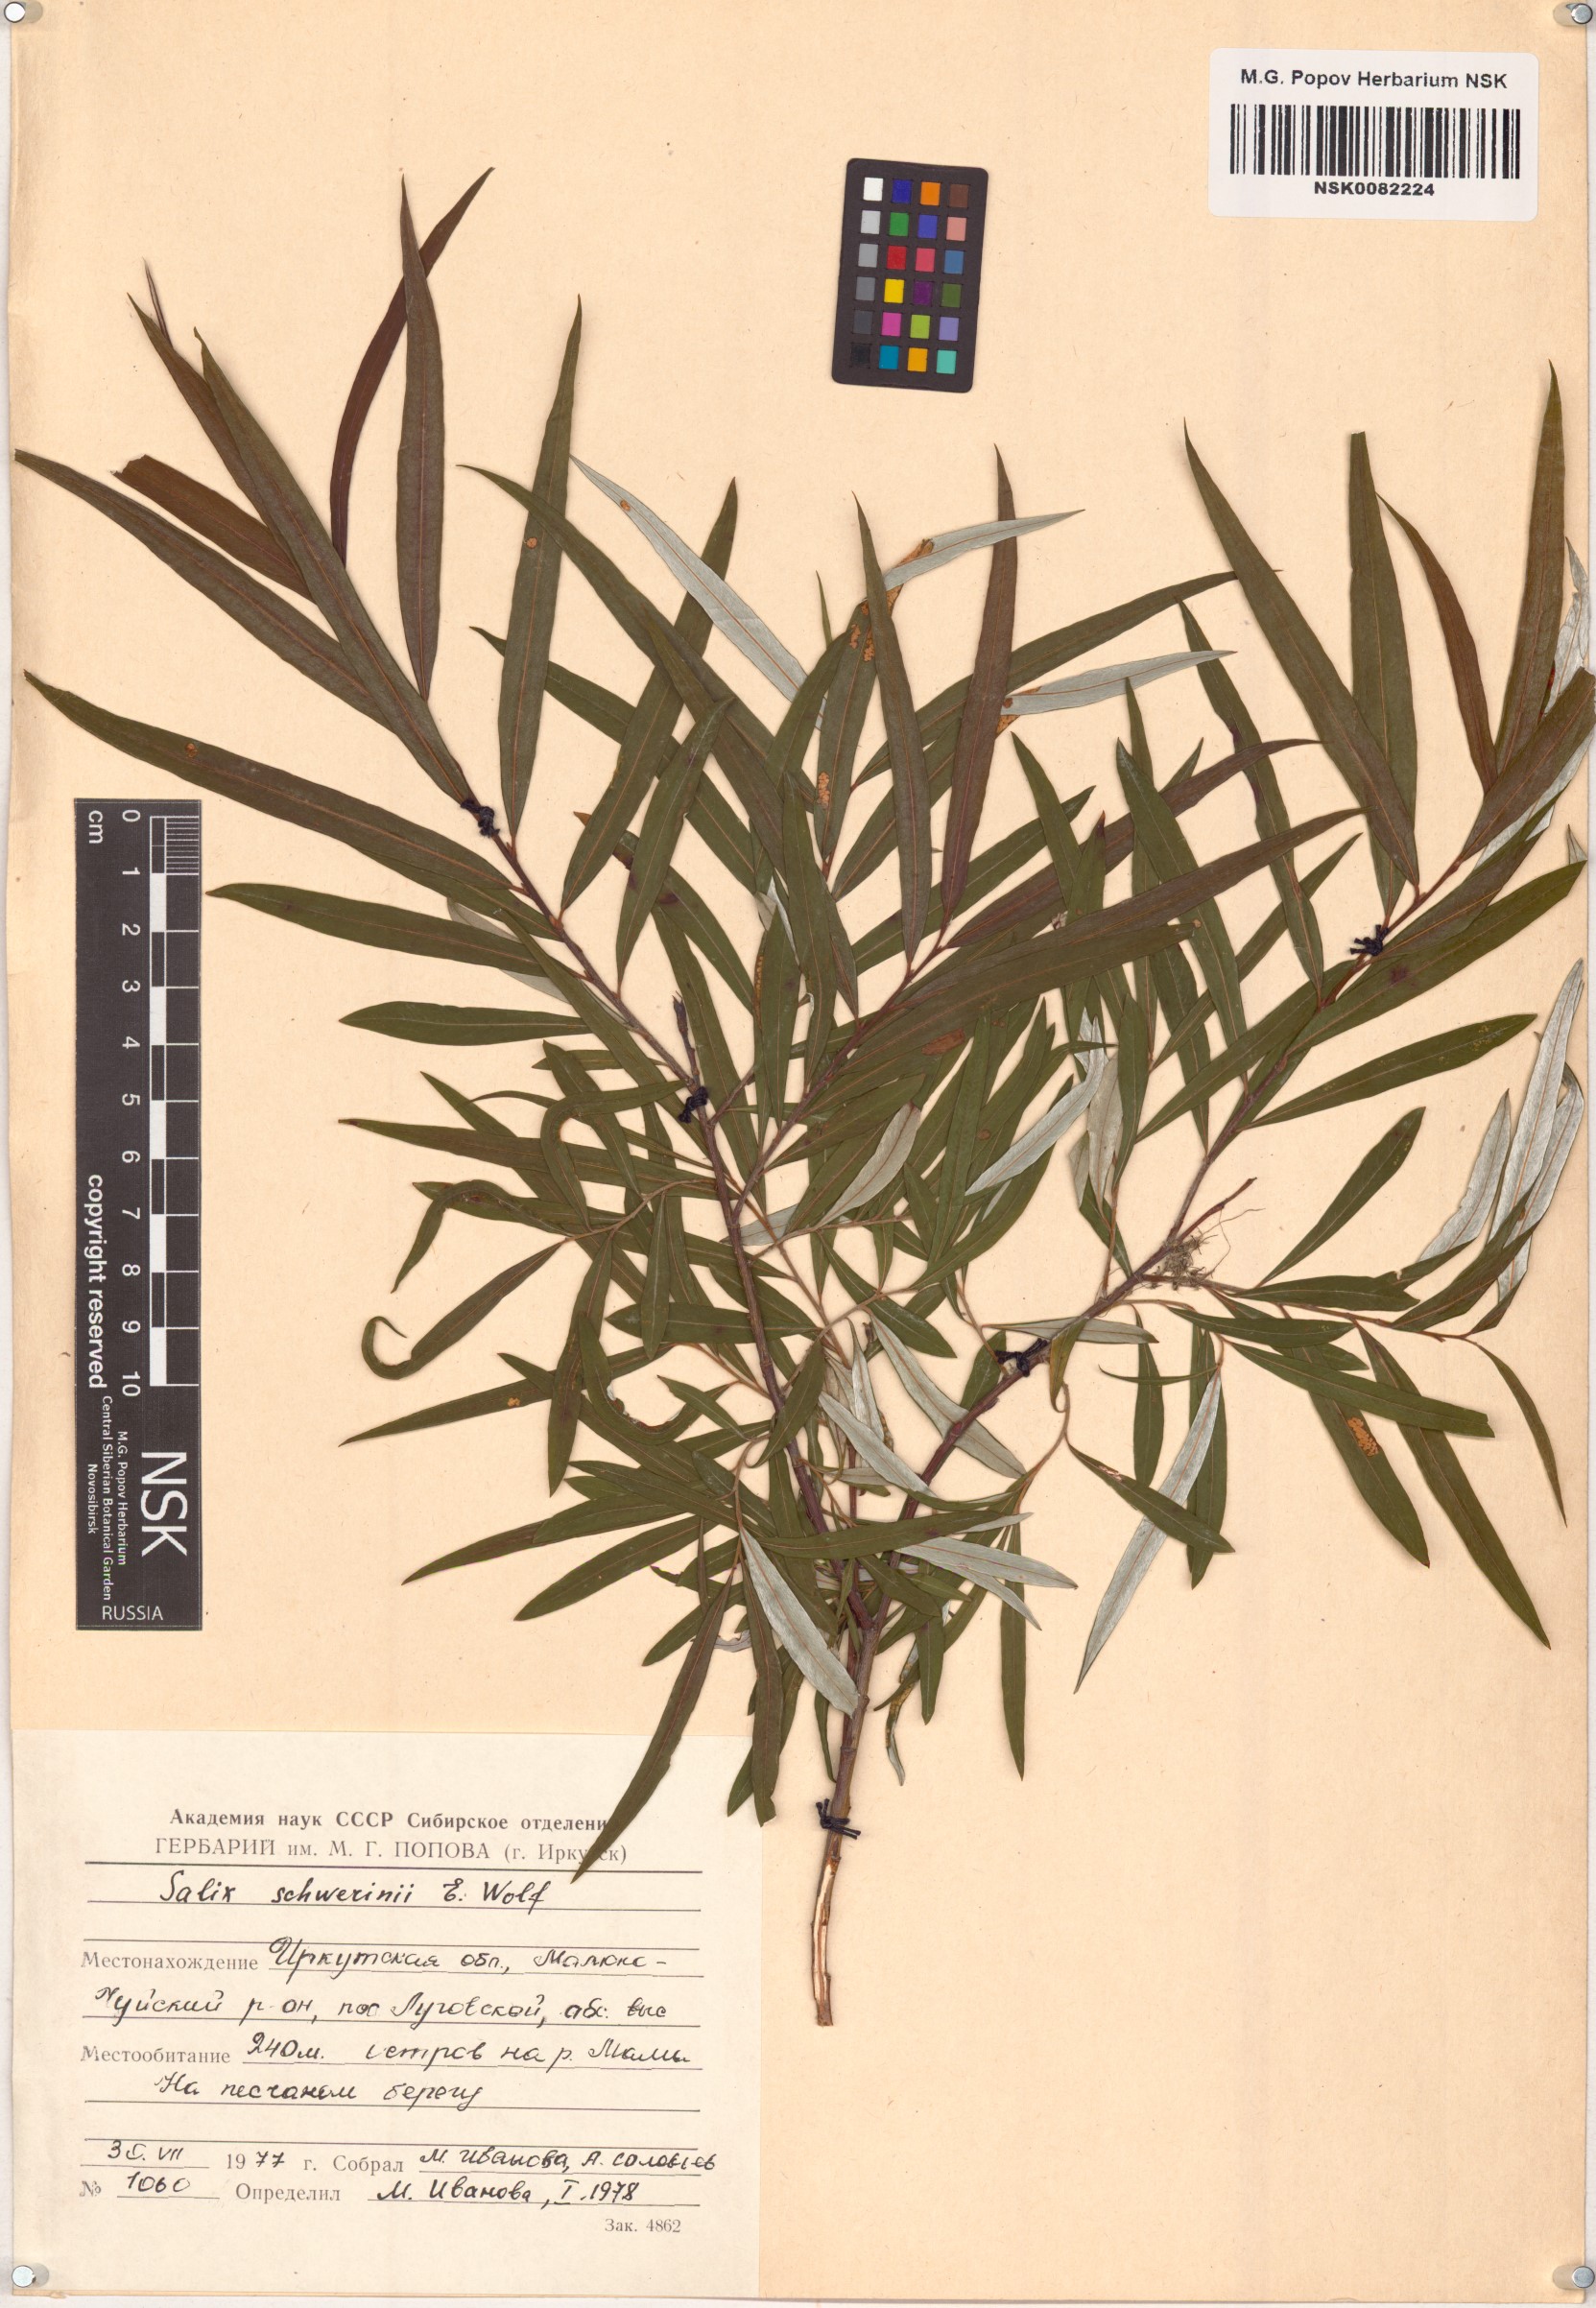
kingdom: Plantae
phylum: Tracheophyta
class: Magnoliopsida
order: Malpighiales
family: Salicaceae
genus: Salix
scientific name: Salix schwerinii
